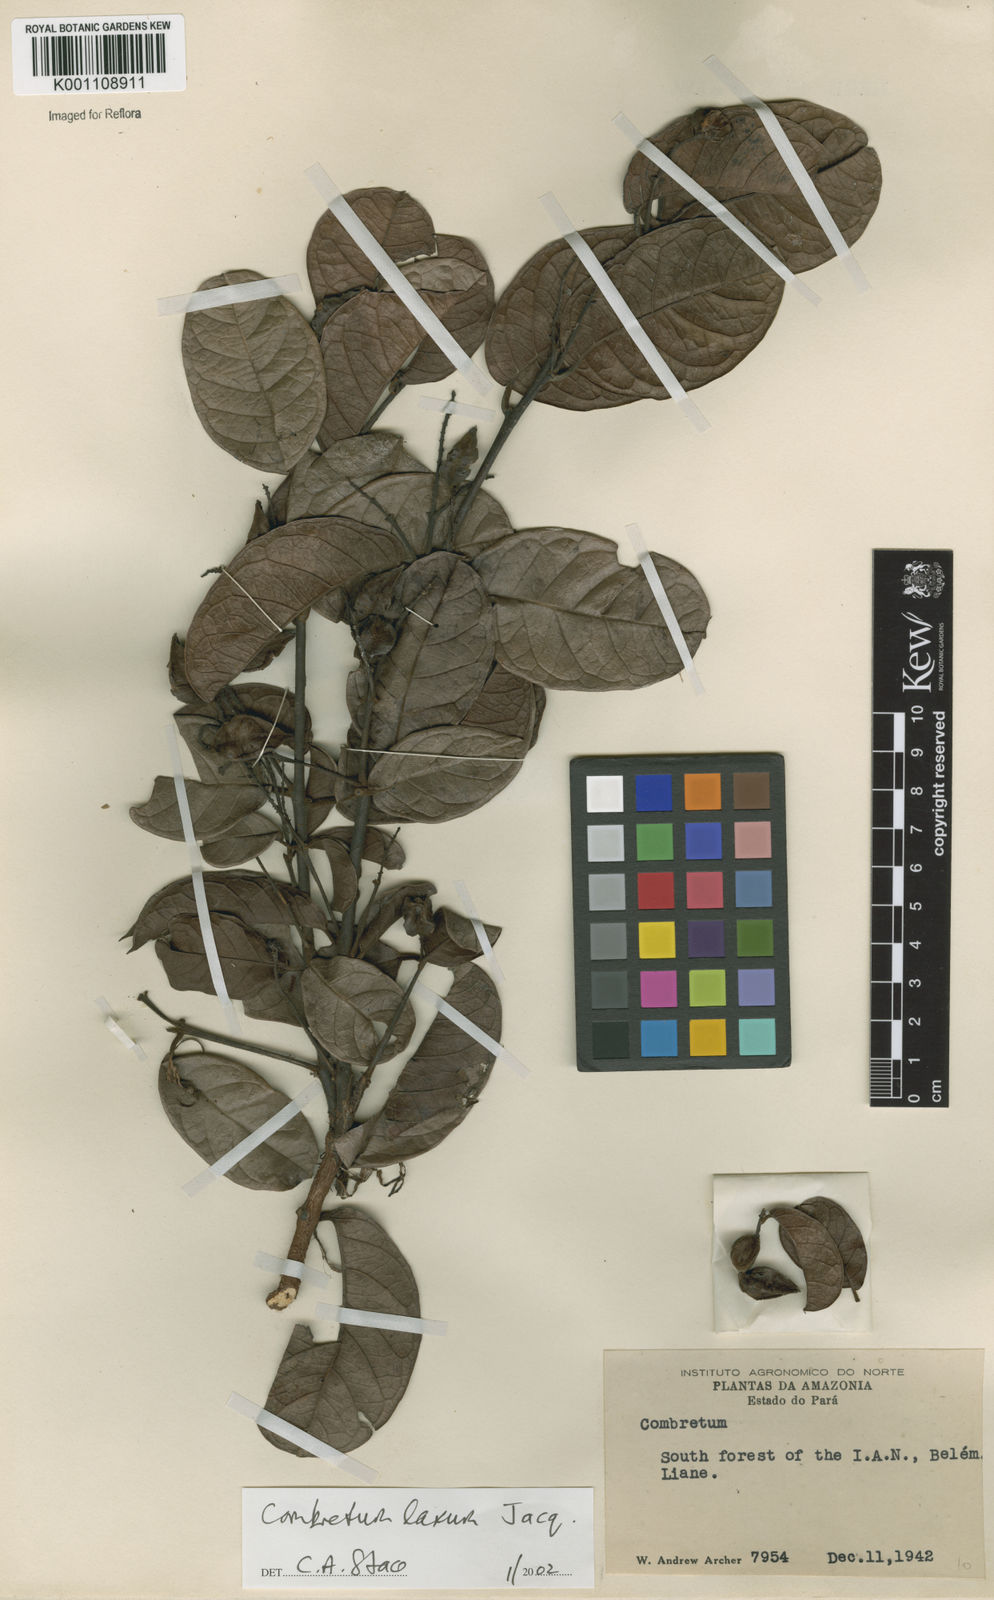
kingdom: Plantae
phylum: Tracheophyta
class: Magnoliopsida
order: Myrtales
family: Combretaceae
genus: Combretum
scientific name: Combretum laxum
